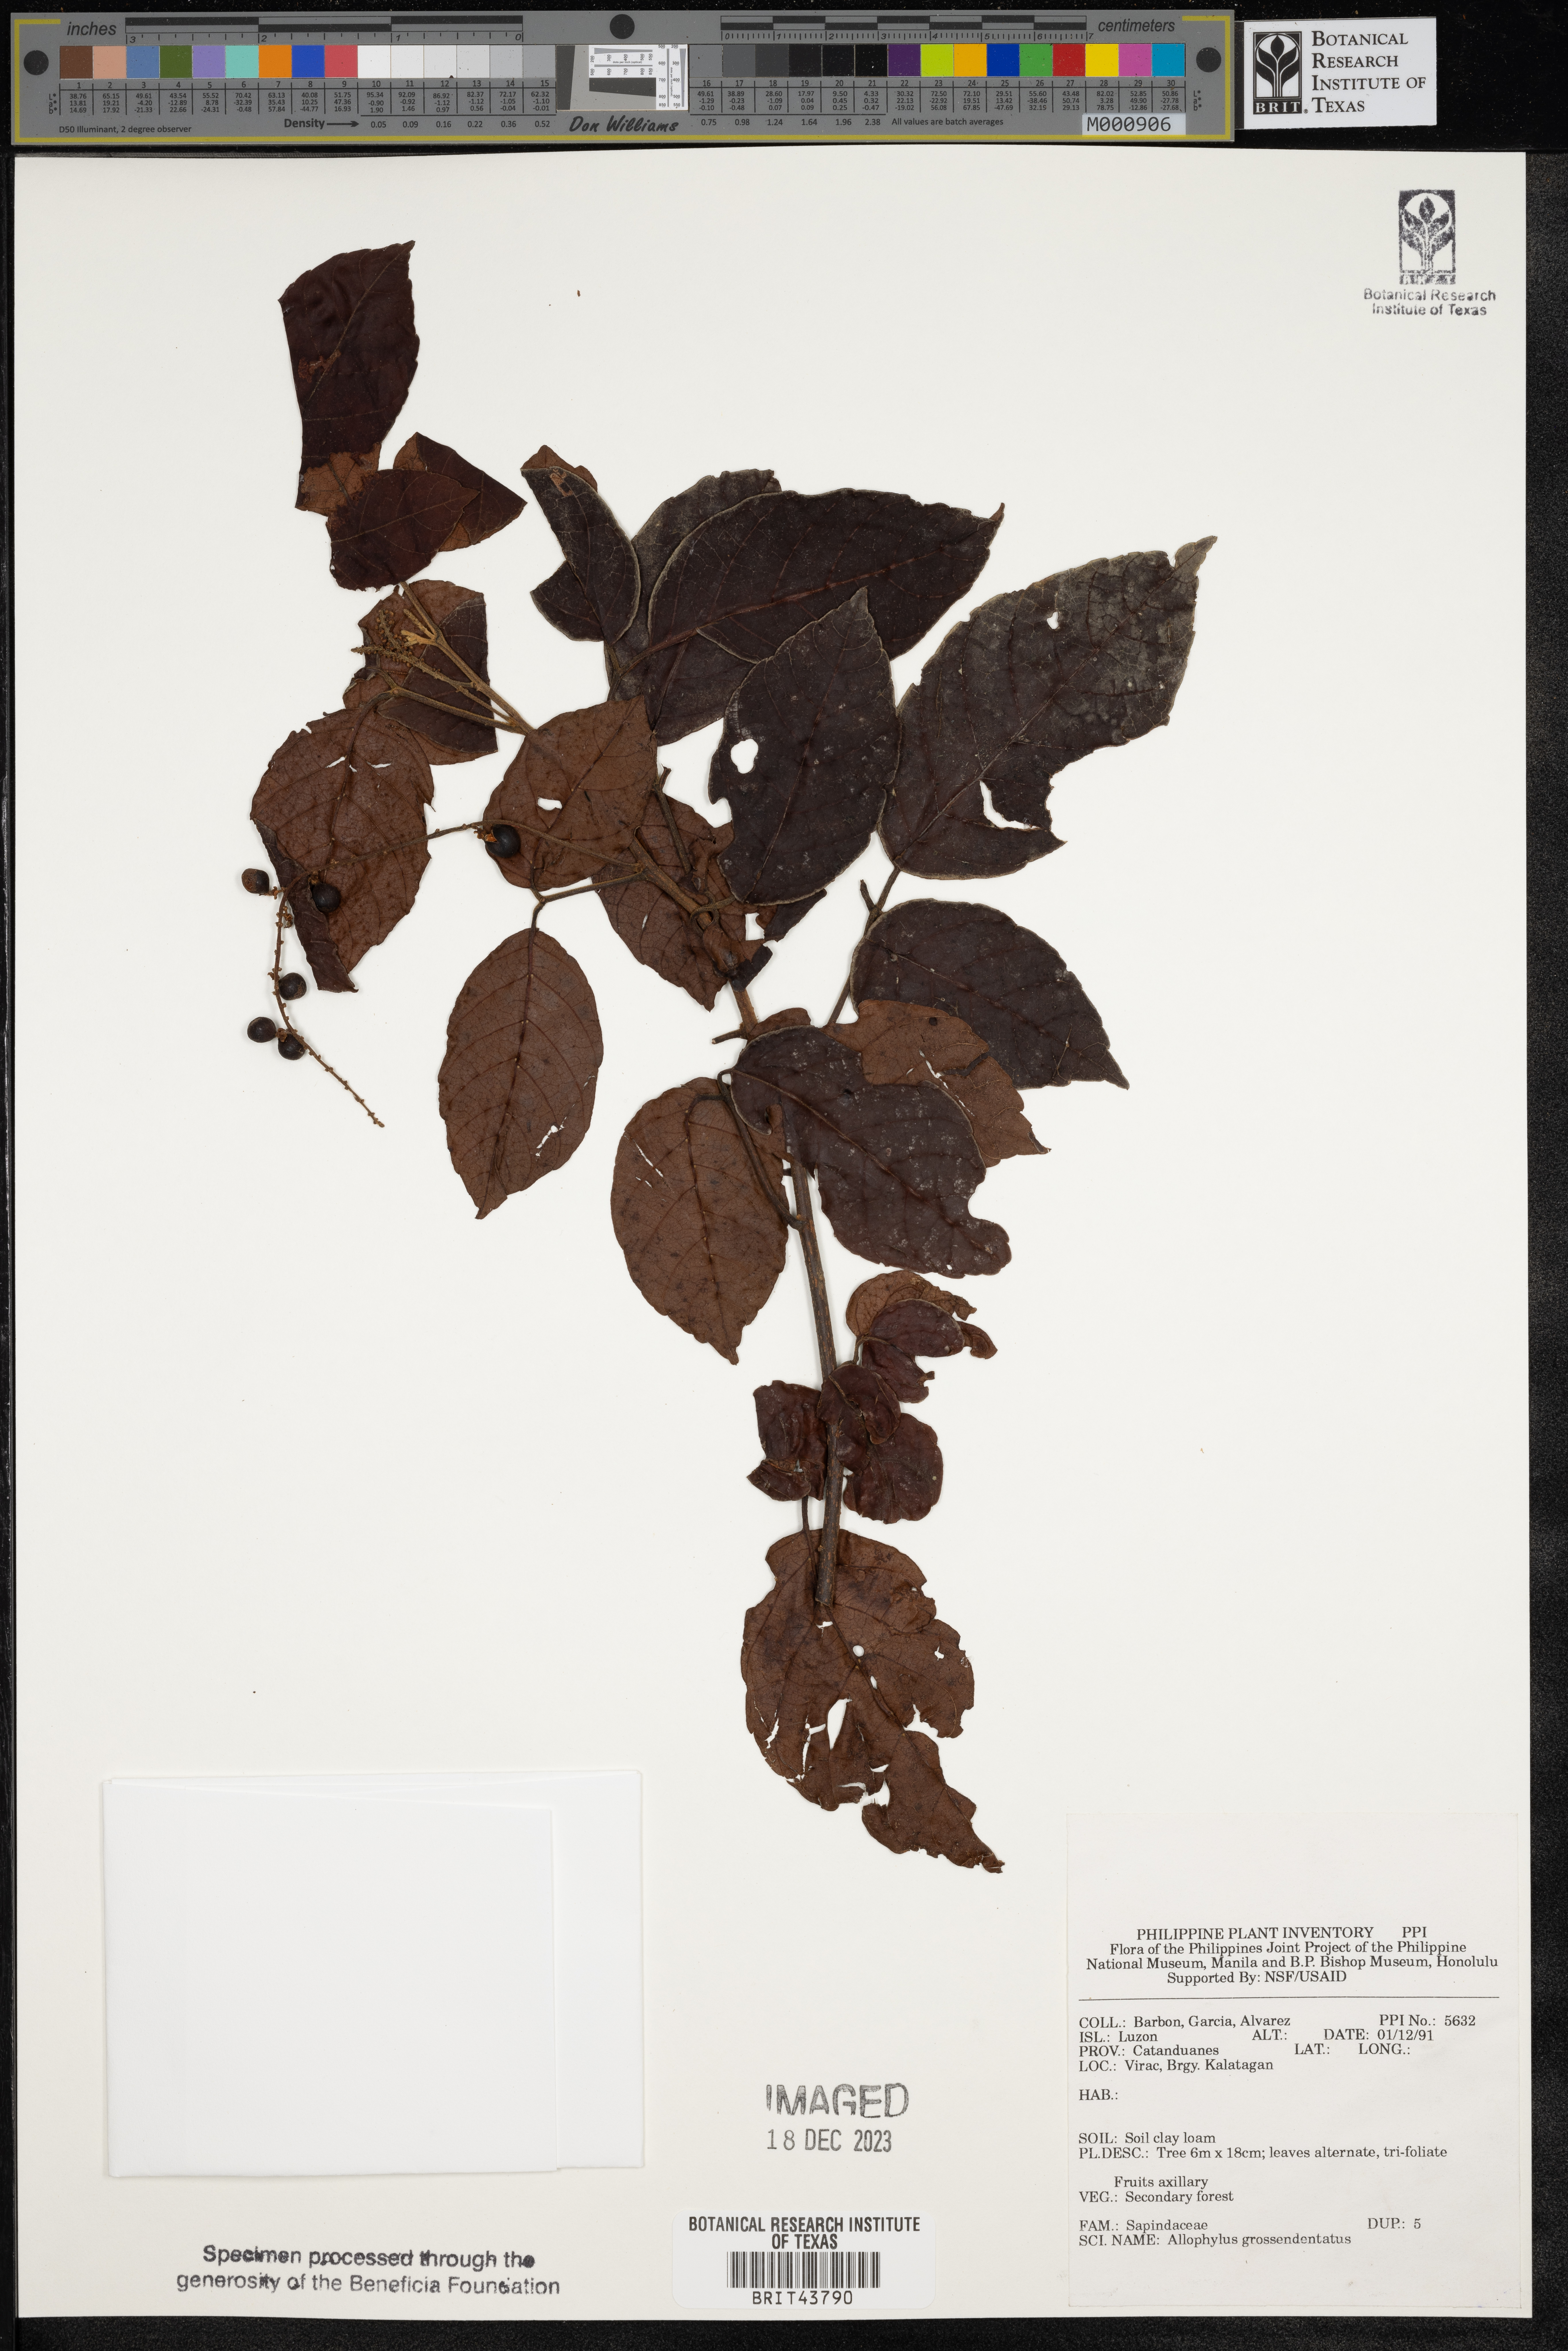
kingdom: Plantae
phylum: Tracheophyta
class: Magnoliopsida
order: Sapindales
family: Sapindaceae
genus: Allophylus
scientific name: Allophylus grossedentatus
